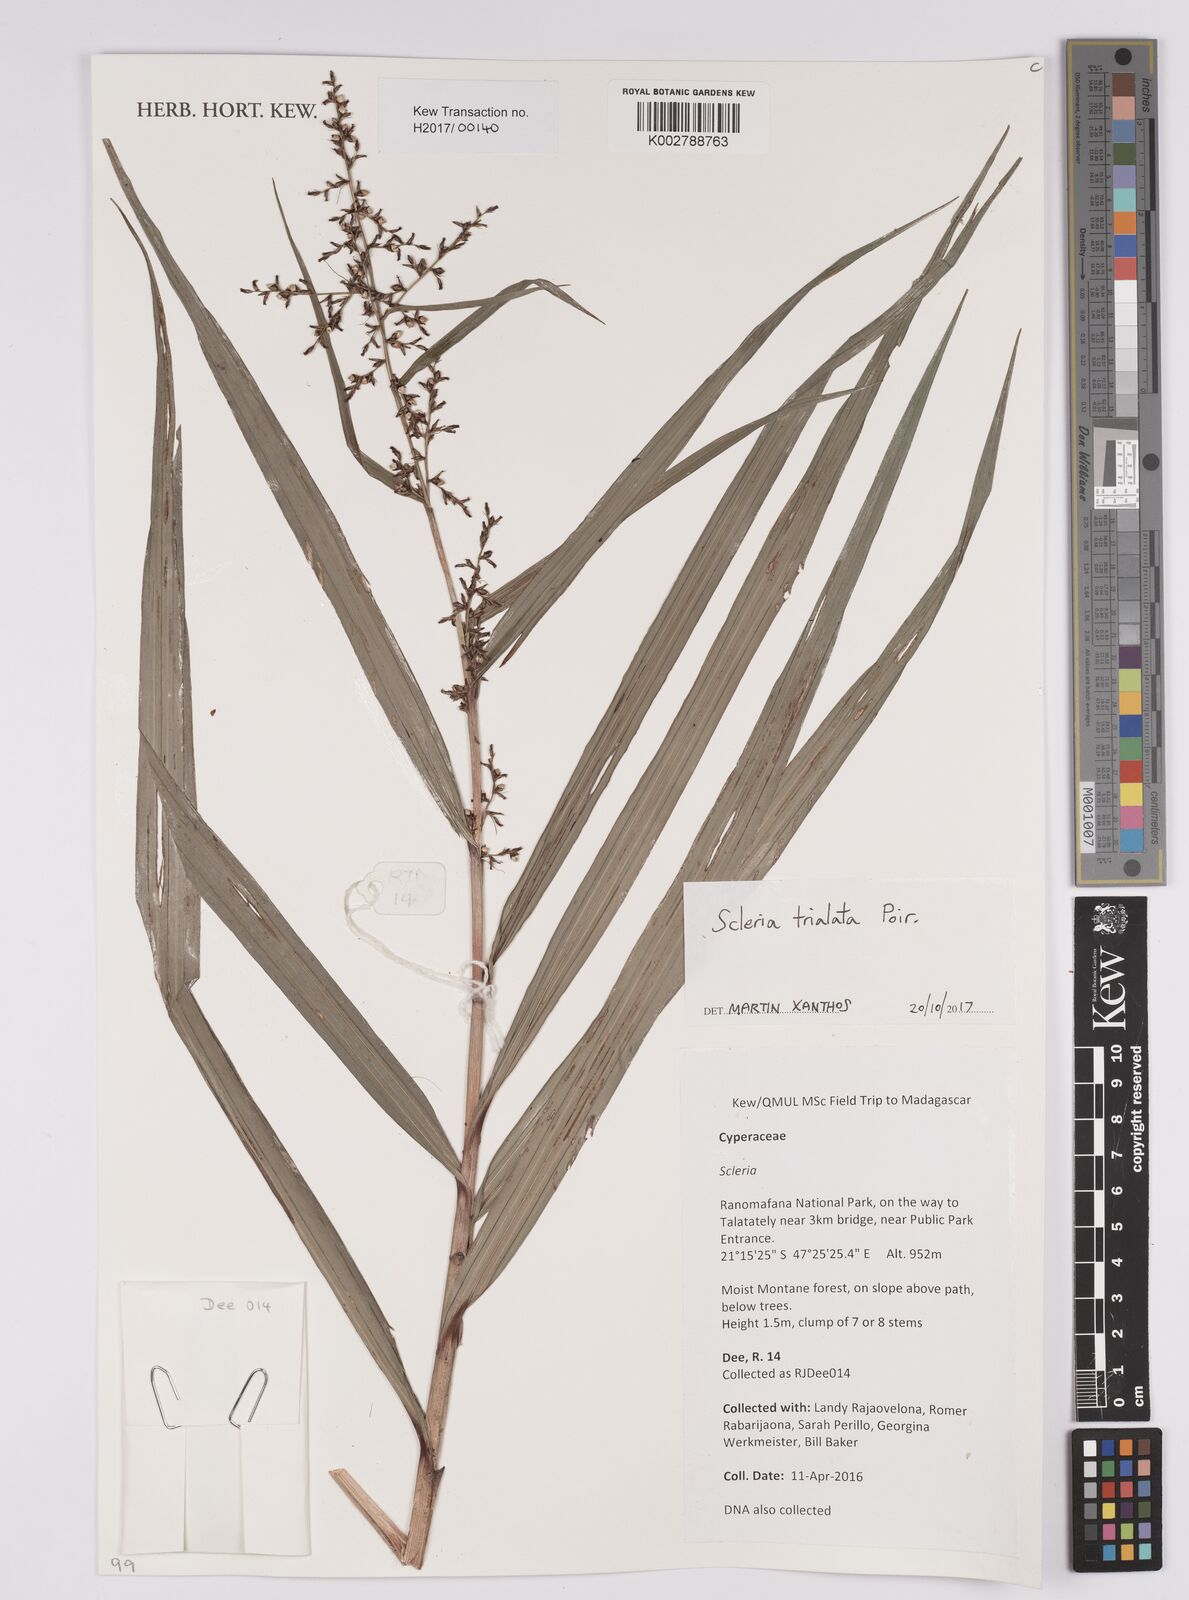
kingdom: Plantae
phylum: Tracheophyta
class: Liliopsida
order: Poales
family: Cyperaceae
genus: Scleria
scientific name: Scleria trialata
